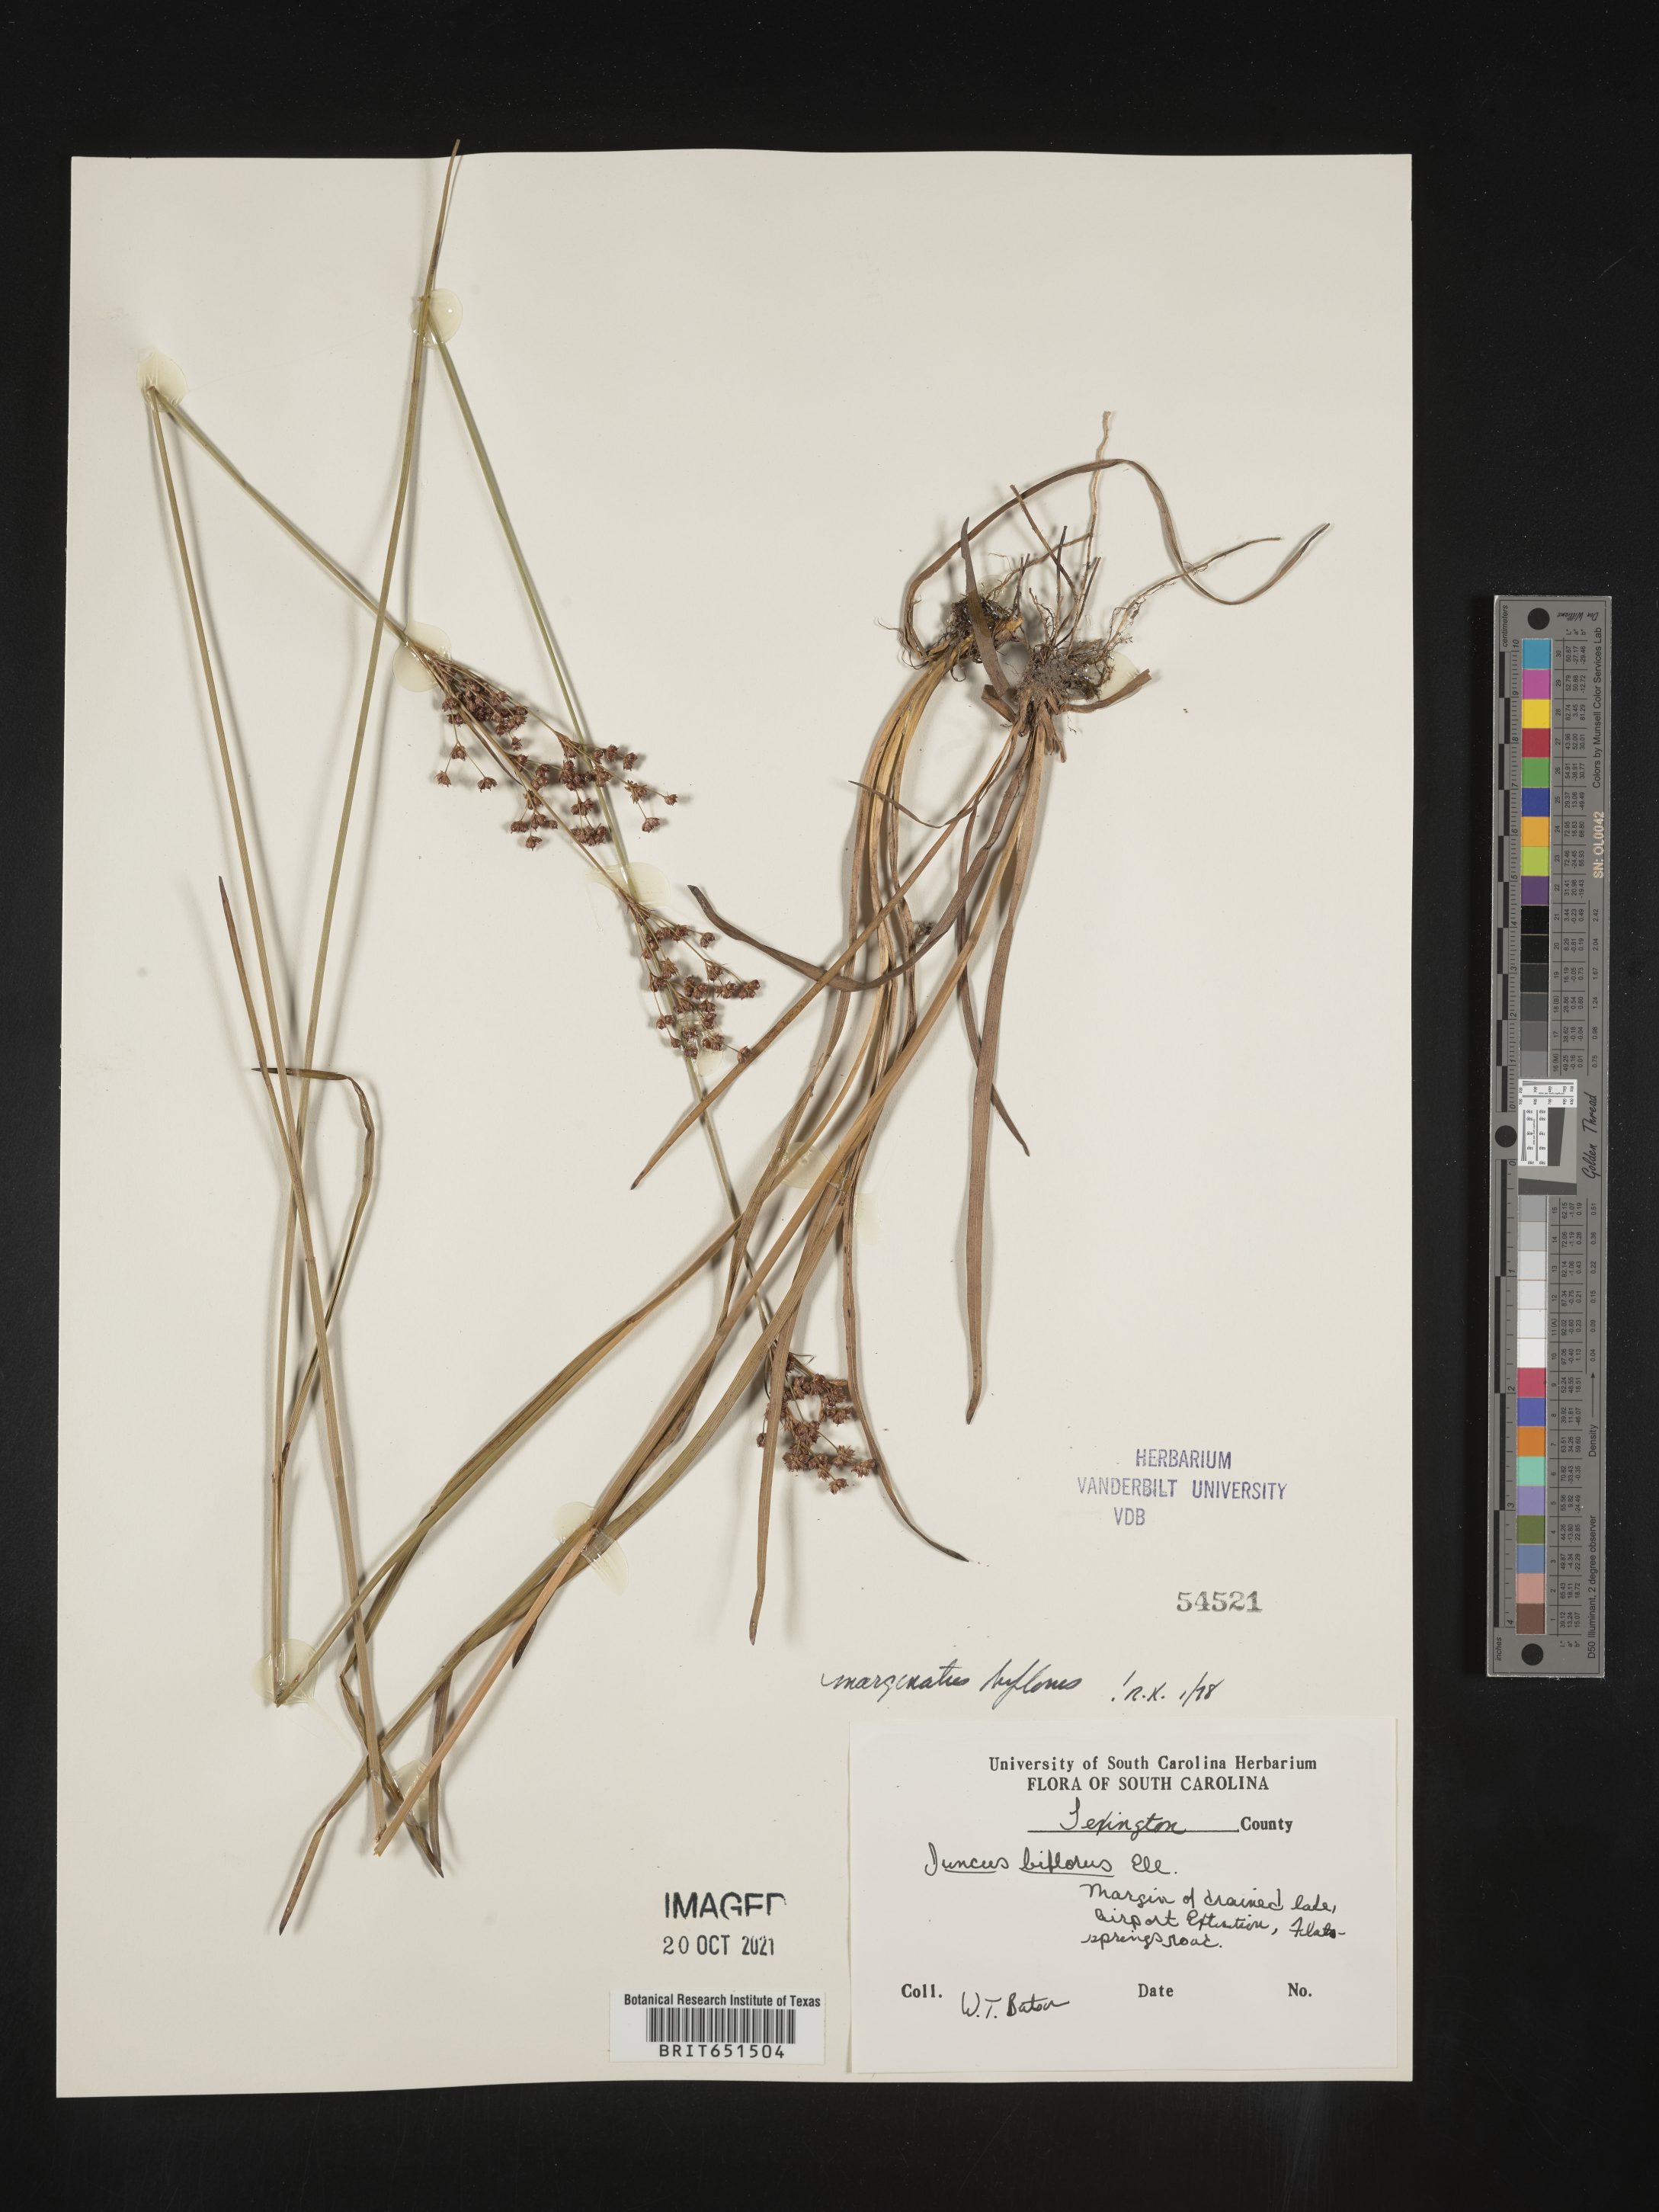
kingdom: Plantae
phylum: Tracheophyta
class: Liliopsida
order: Poales
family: Juncaceae
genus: Juncus
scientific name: Juncus biflorus
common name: Two-flowered rush
